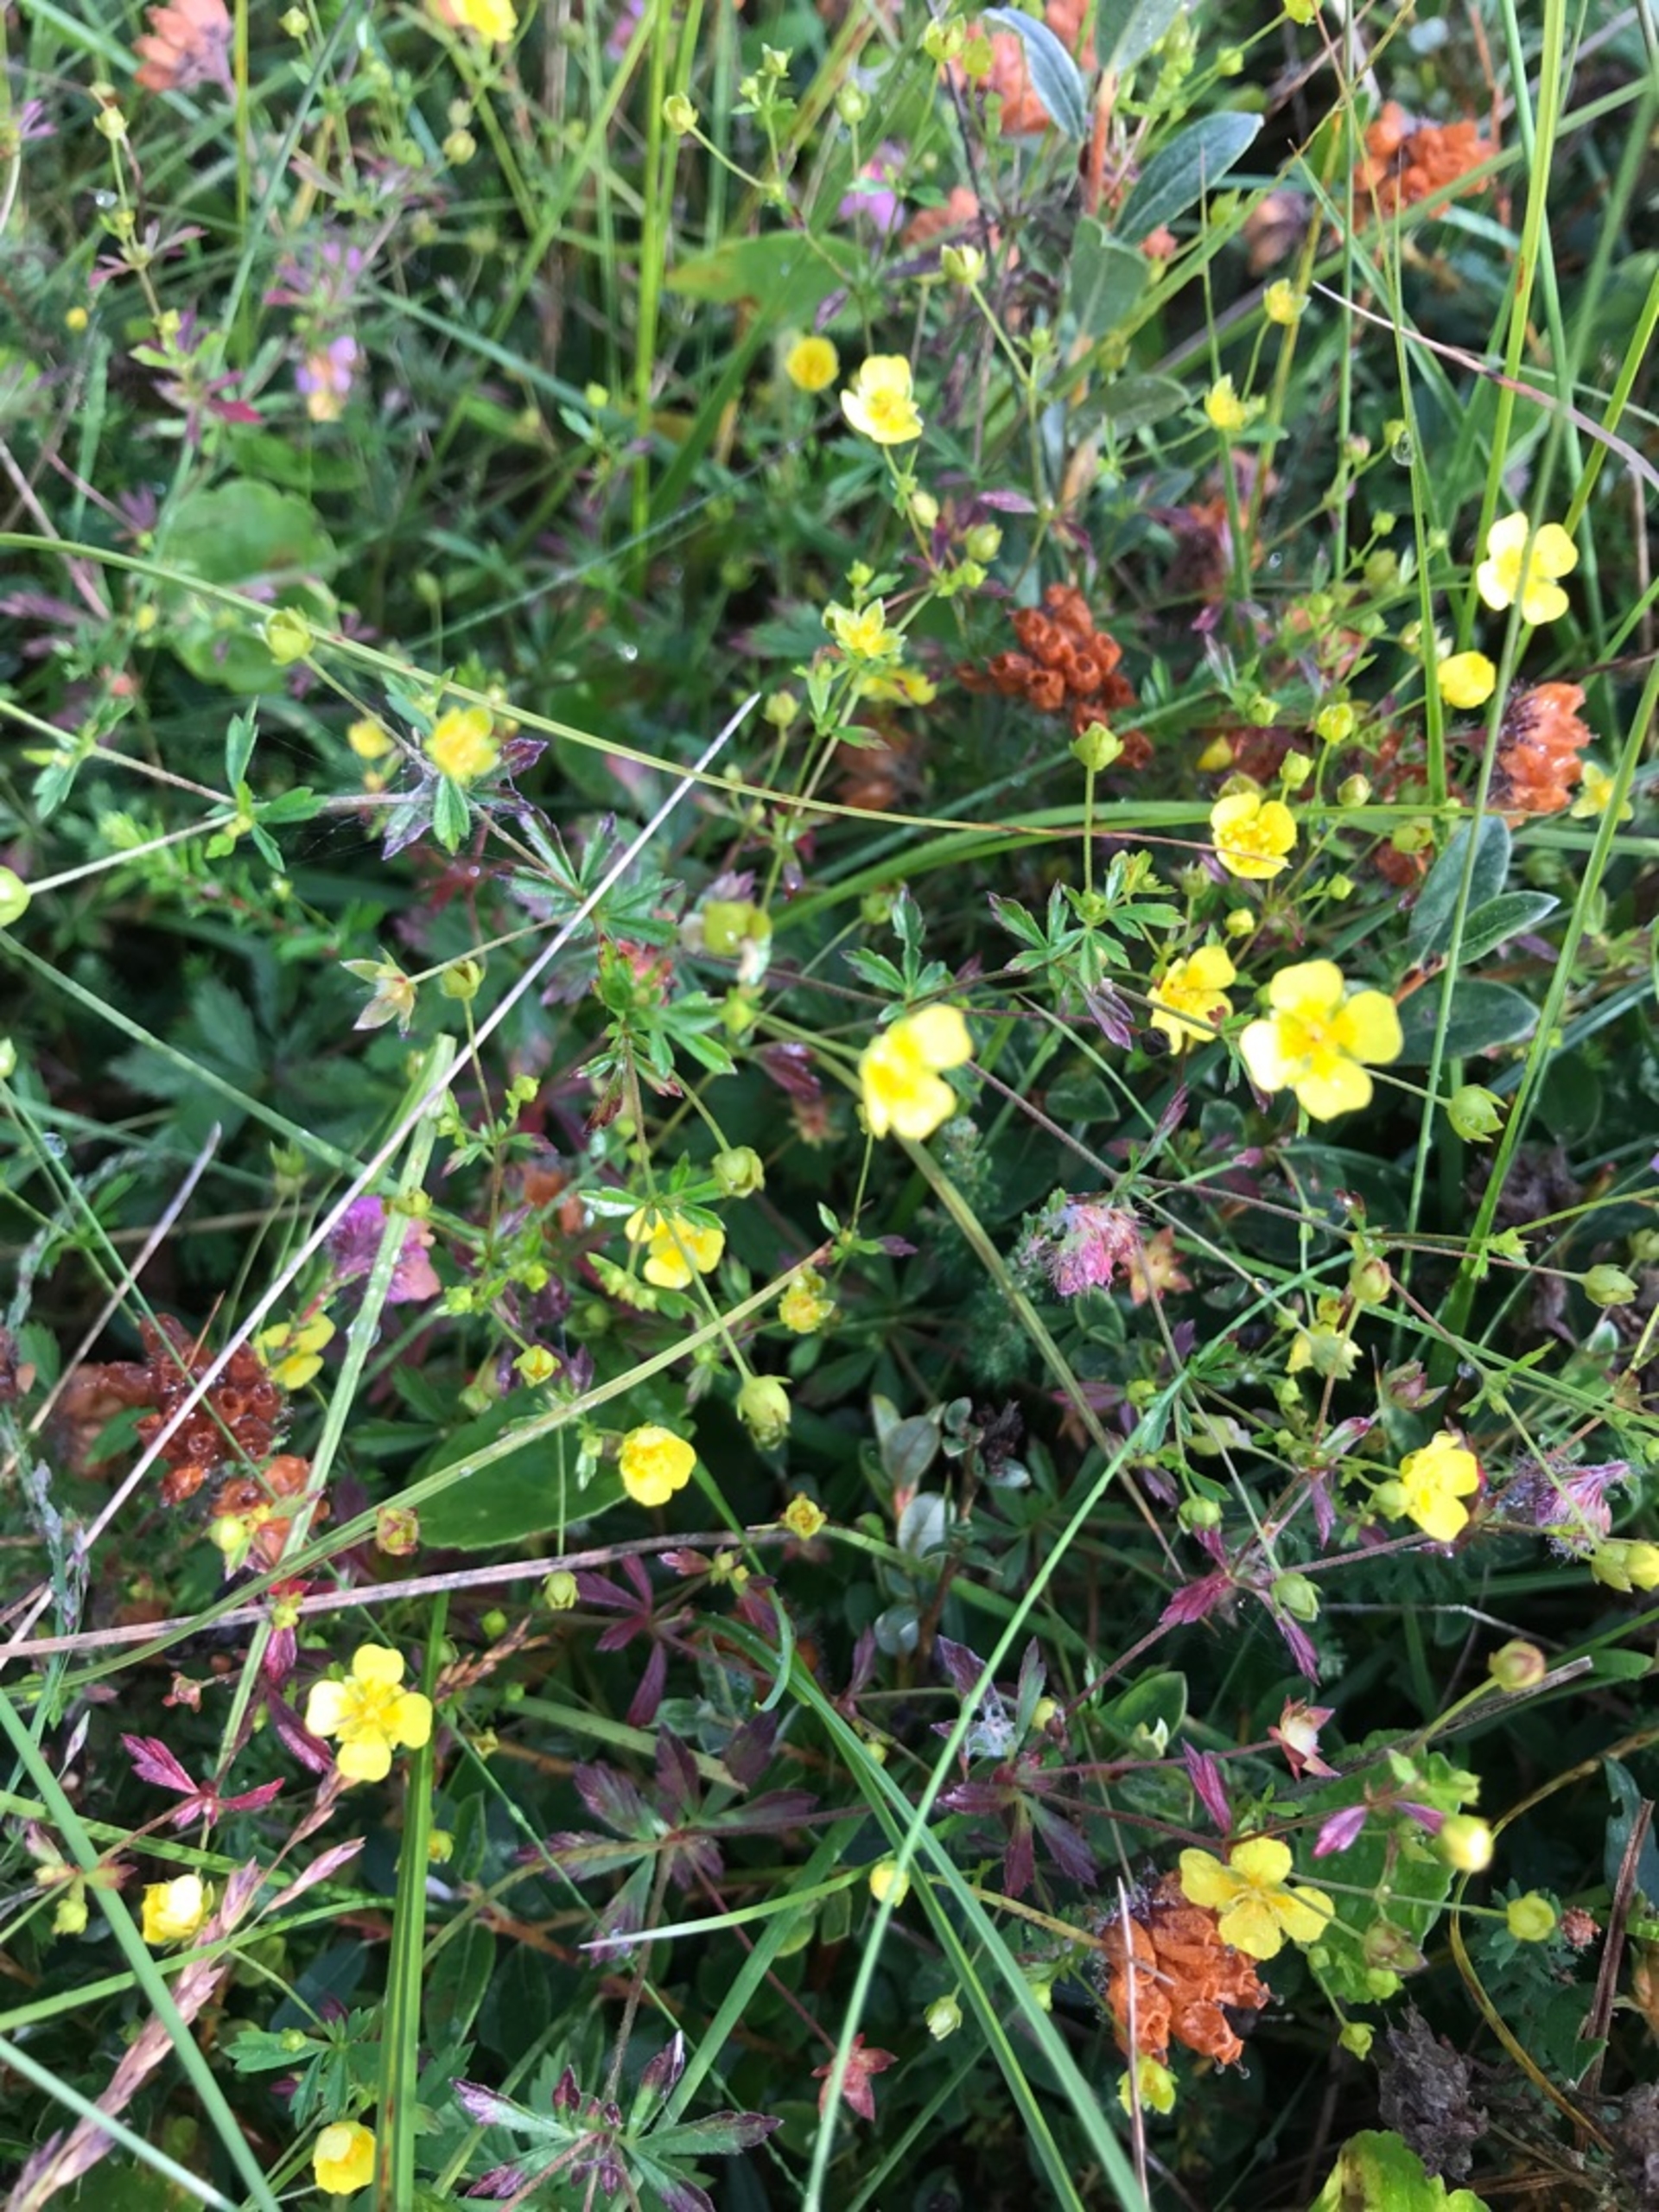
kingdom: Plantae
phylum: Tracheophyta
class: Magnoliopsida
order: Rosales
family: Rosaceae
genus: Potentilla
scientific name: Potentilla erecta
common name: Tormentil
